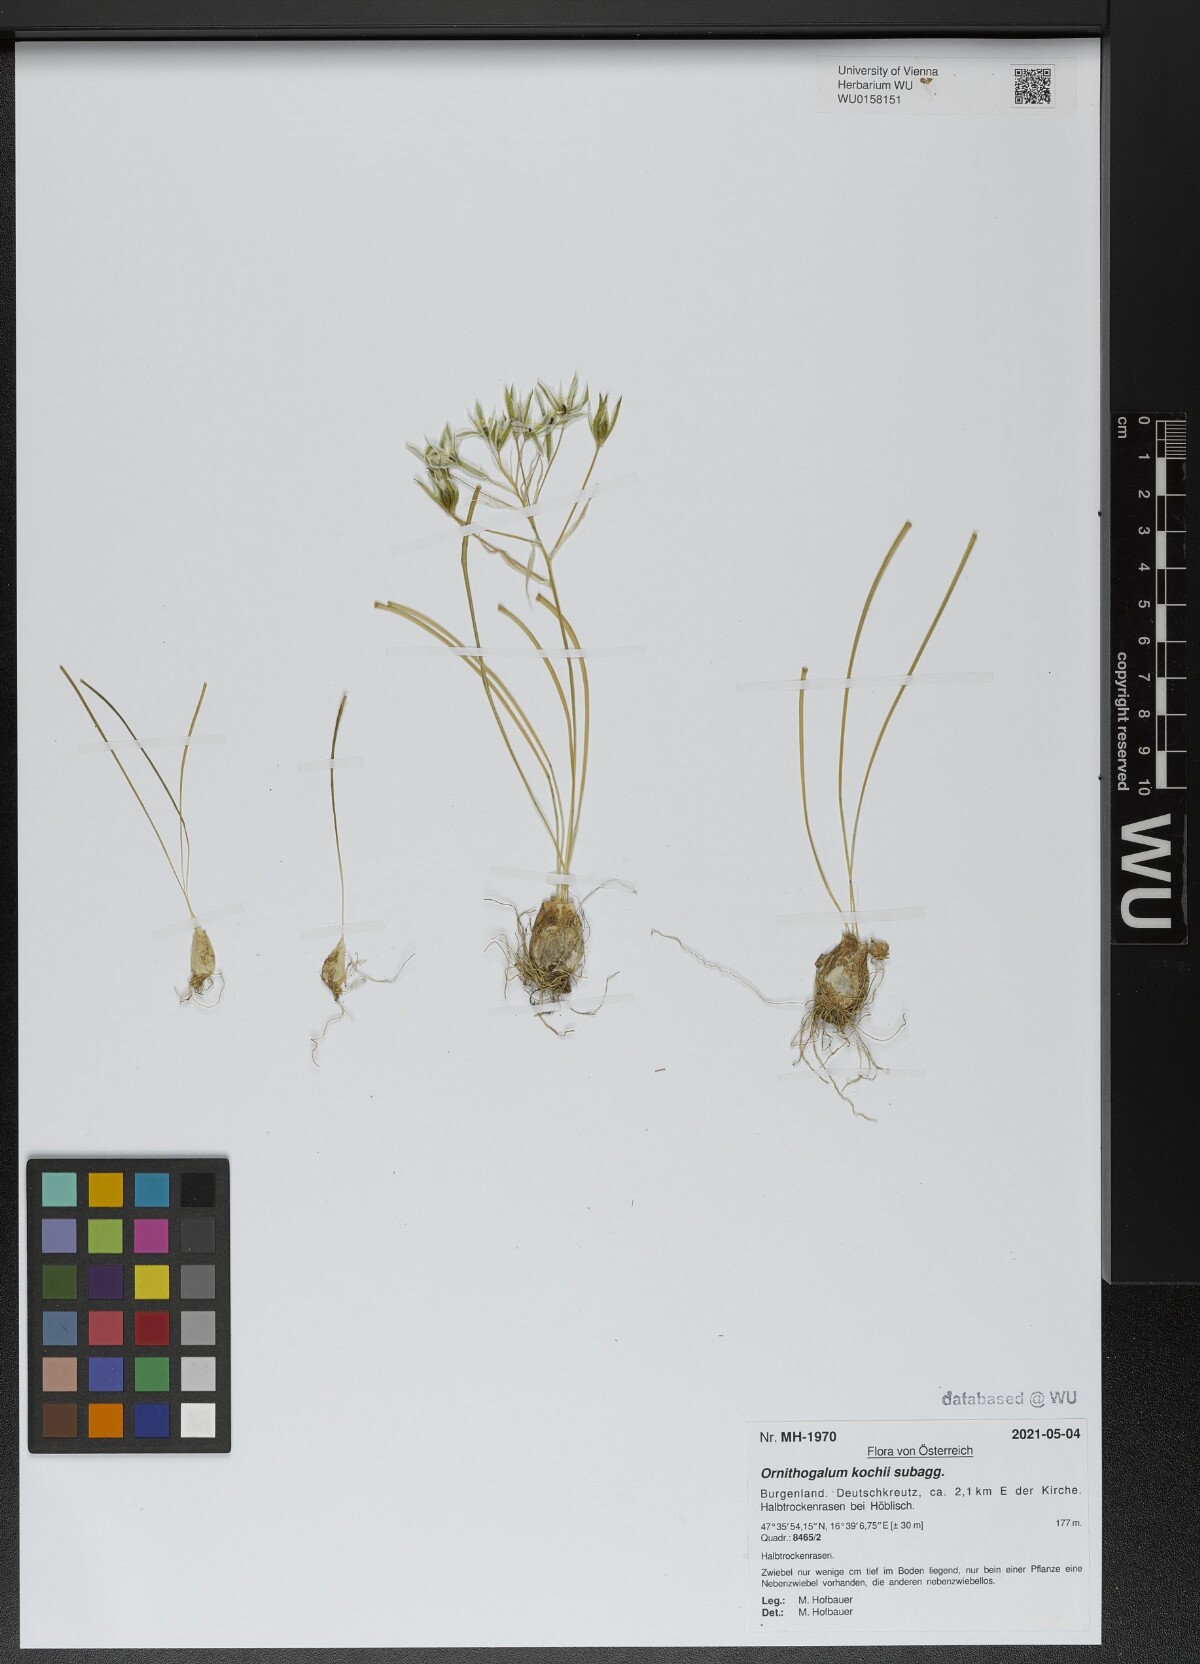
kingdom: Plantae
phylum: Tracheophyta
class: Liliopsida
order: Asparagales
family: Asparagaceae
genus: Ornithogalum
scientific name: Ornithogalum orthophyllum
